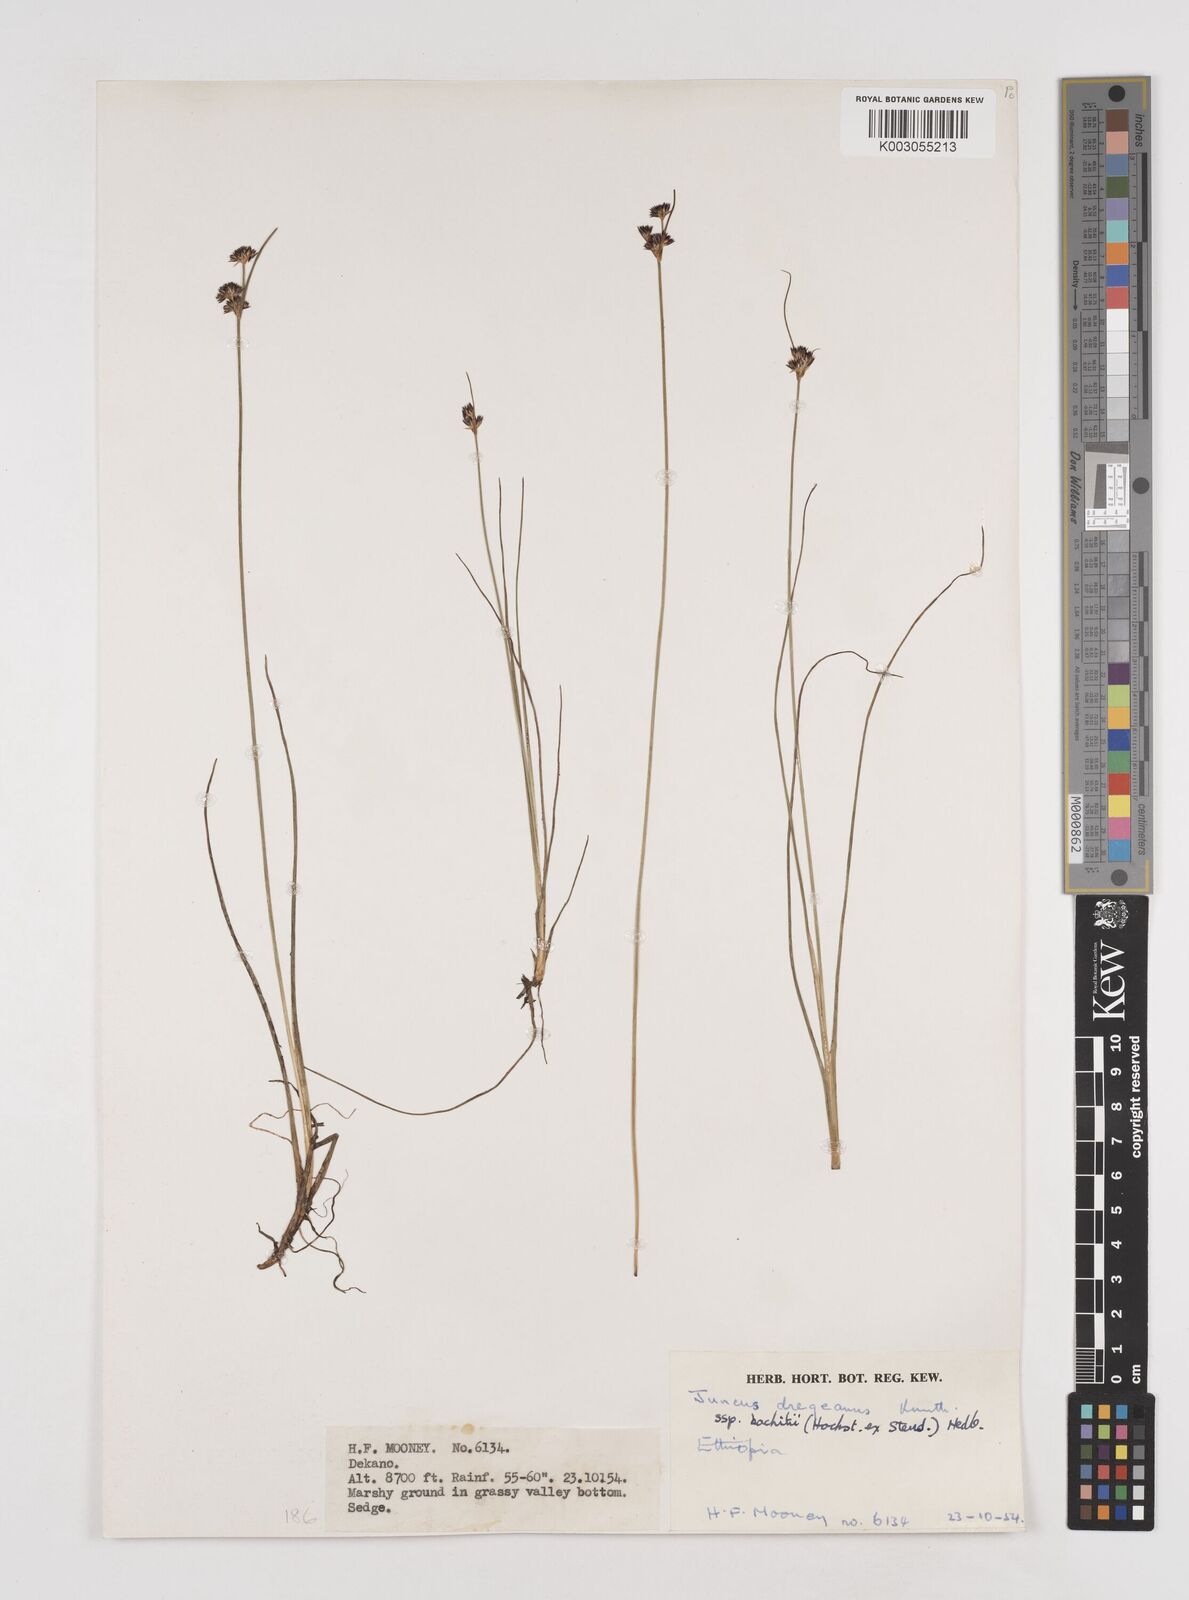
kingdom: Plantae
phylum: Tracheophyta
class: Liliopsida
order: Poales
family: Juncaceae
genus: Juncus
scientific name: Juncus dregeanus
